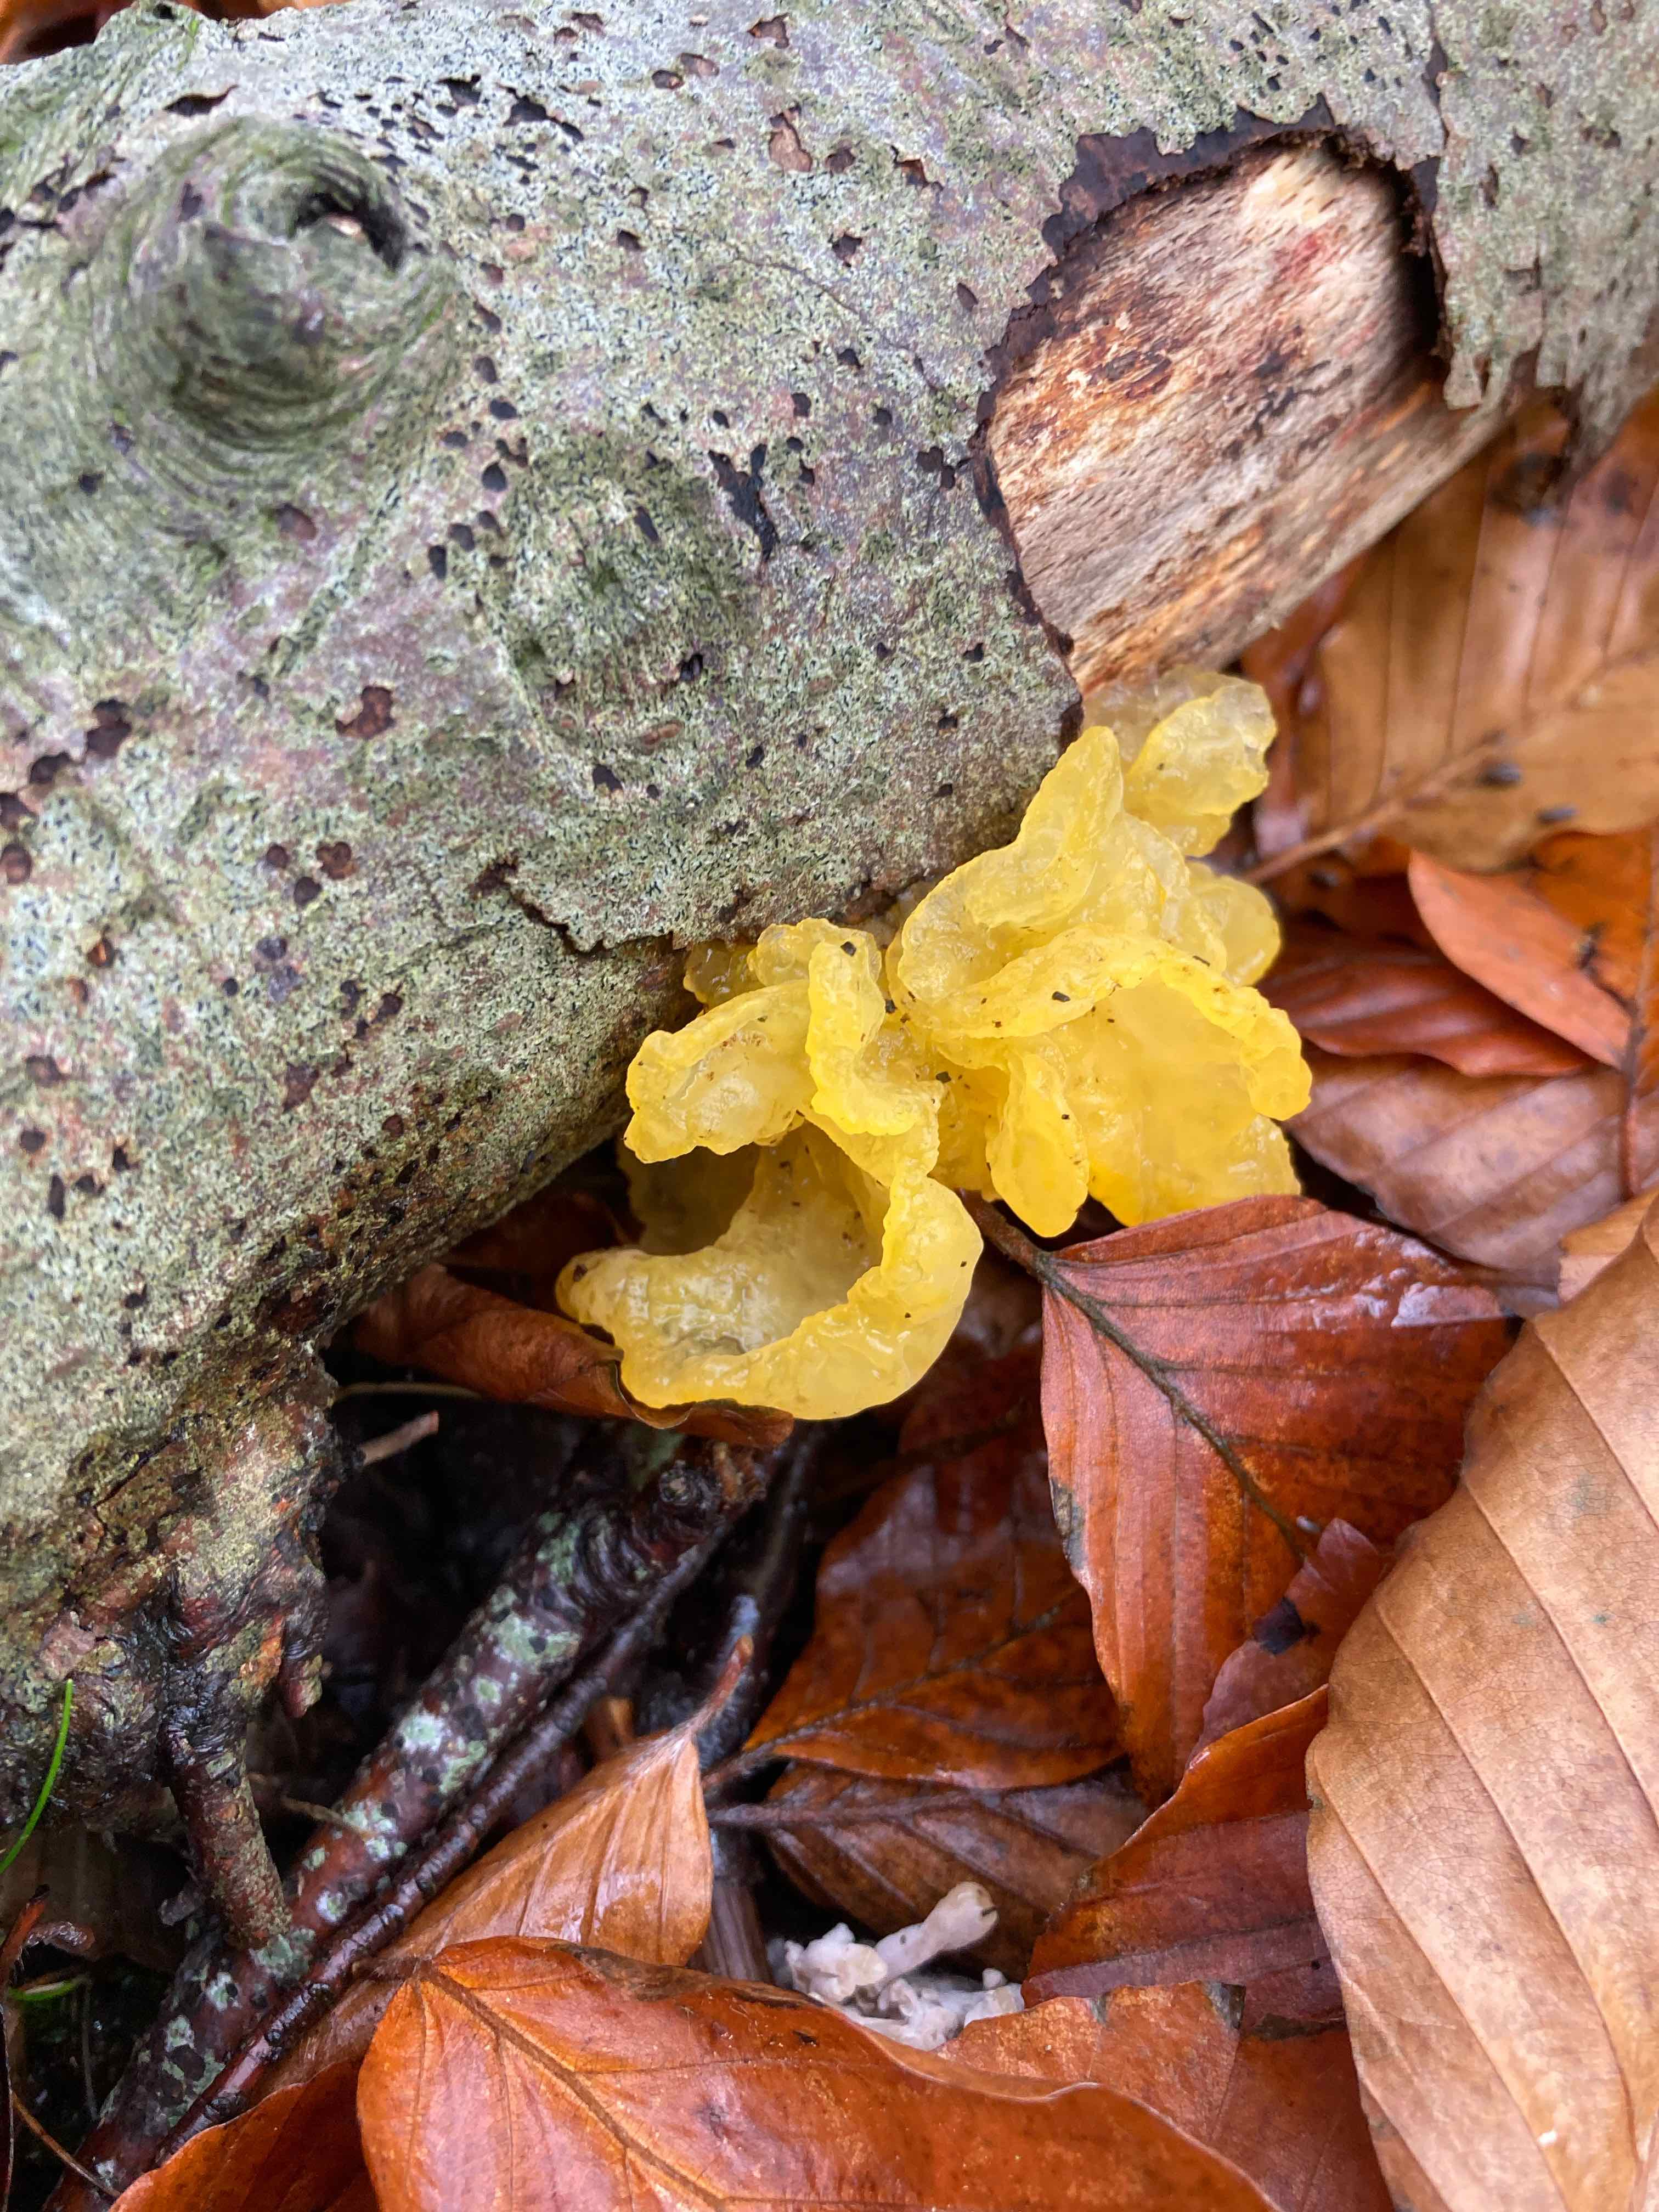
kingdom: Fungi
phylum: Basidiomycota
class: Tremellomycetes
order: Tremellales
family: Tremellaceae
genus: Tremella
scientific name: Tremella mesenterica
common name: gul bævresvamp
